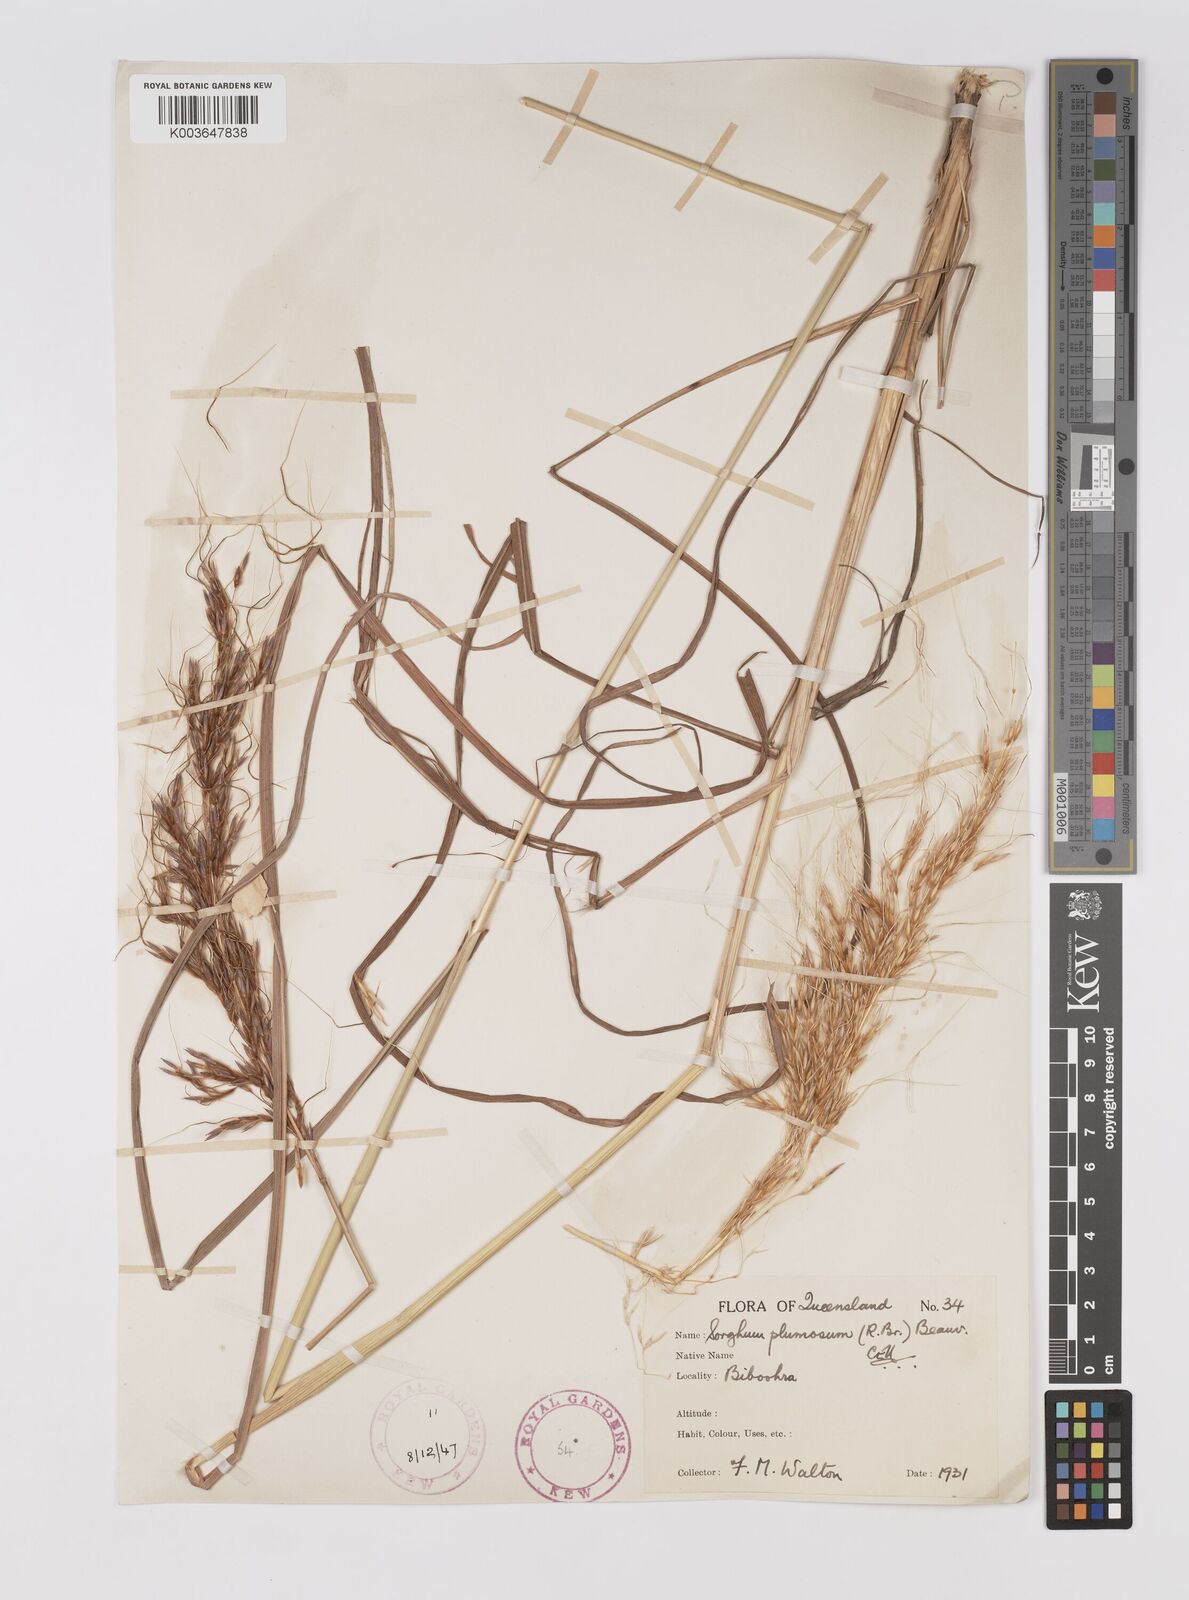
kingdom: Plantae
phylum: Tracheophyta
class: Liliopsida
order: Poales
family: Poaceae
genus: Sarga
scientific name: Sarga plumosa
